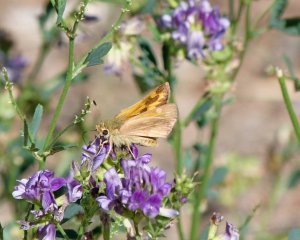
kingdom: Animalia
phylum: Arthropoda
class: Insecta
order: Lepidoptera
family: Hesperiidae
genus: Ochlodes
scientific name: Ochlodes sylvanoides
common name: Woodland Skipper
